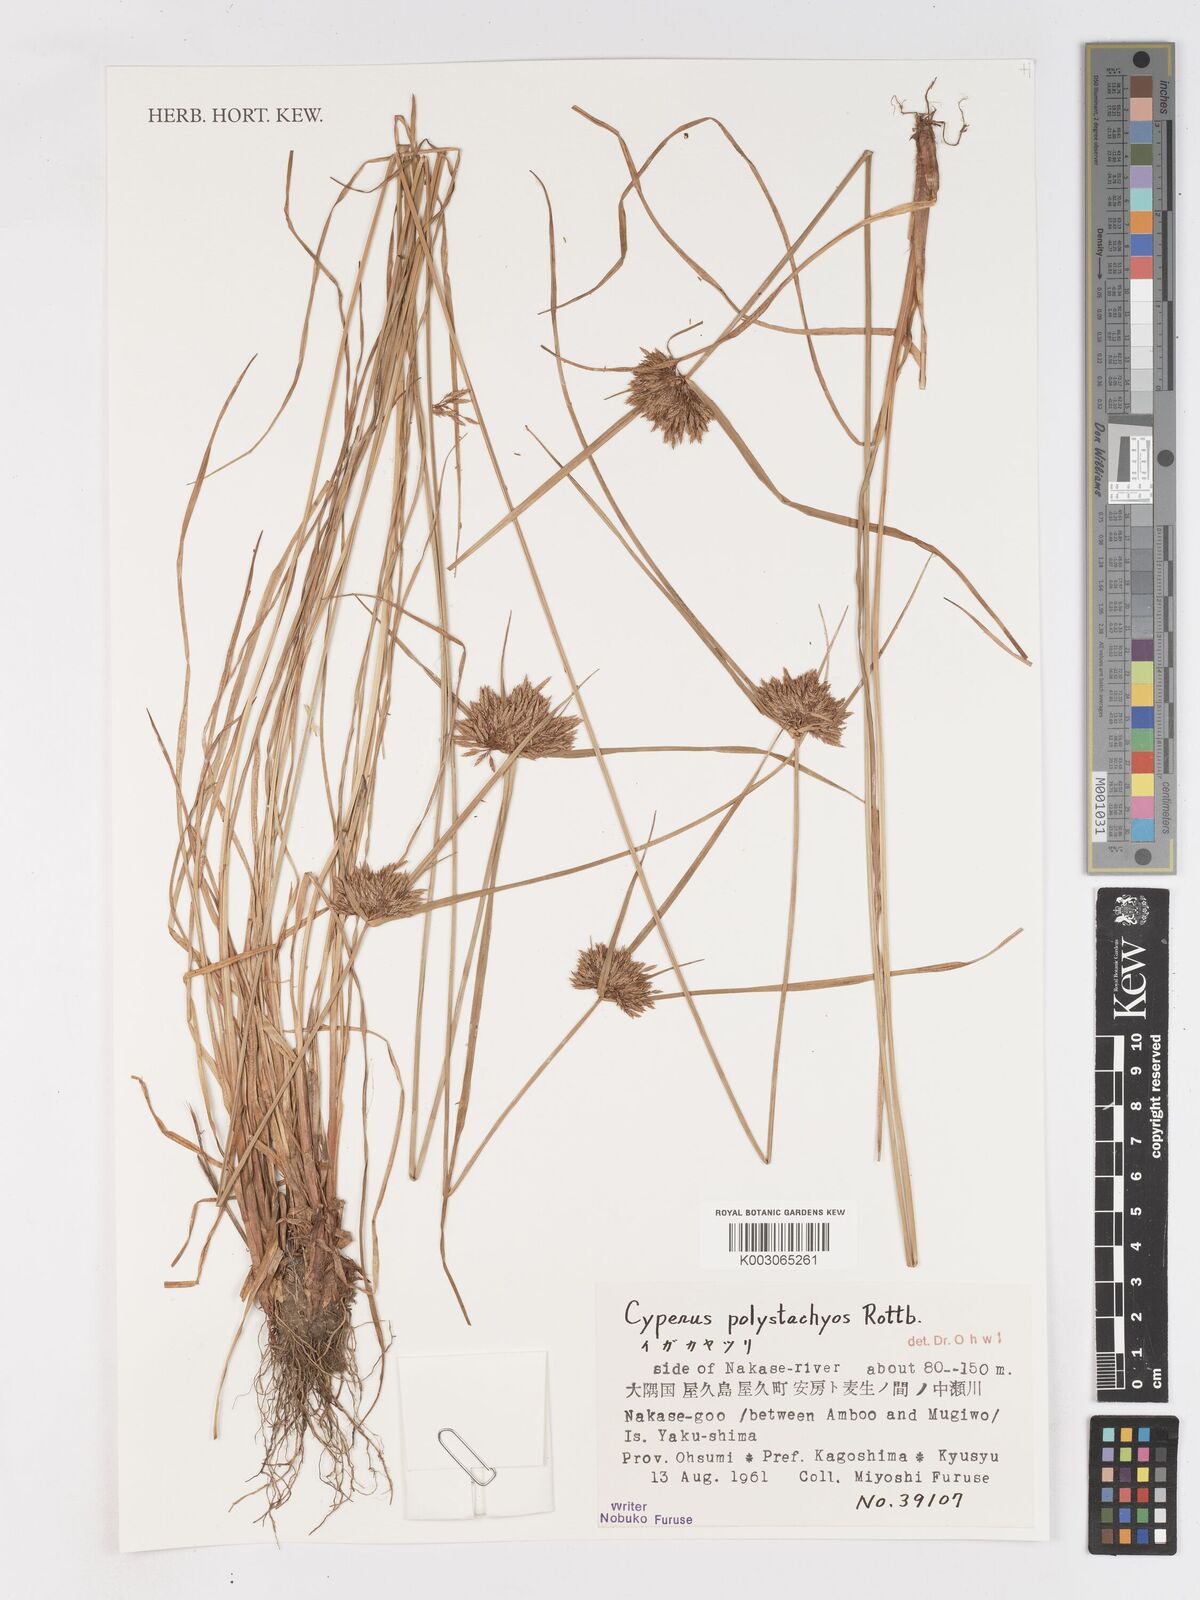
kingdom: Plantae
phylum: Tracheophyta
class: Liliopsida
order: Poales
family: Cyperaceae
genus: Cyperus
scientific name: Cyperus polystachyos
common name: Bunchy flat sedge
